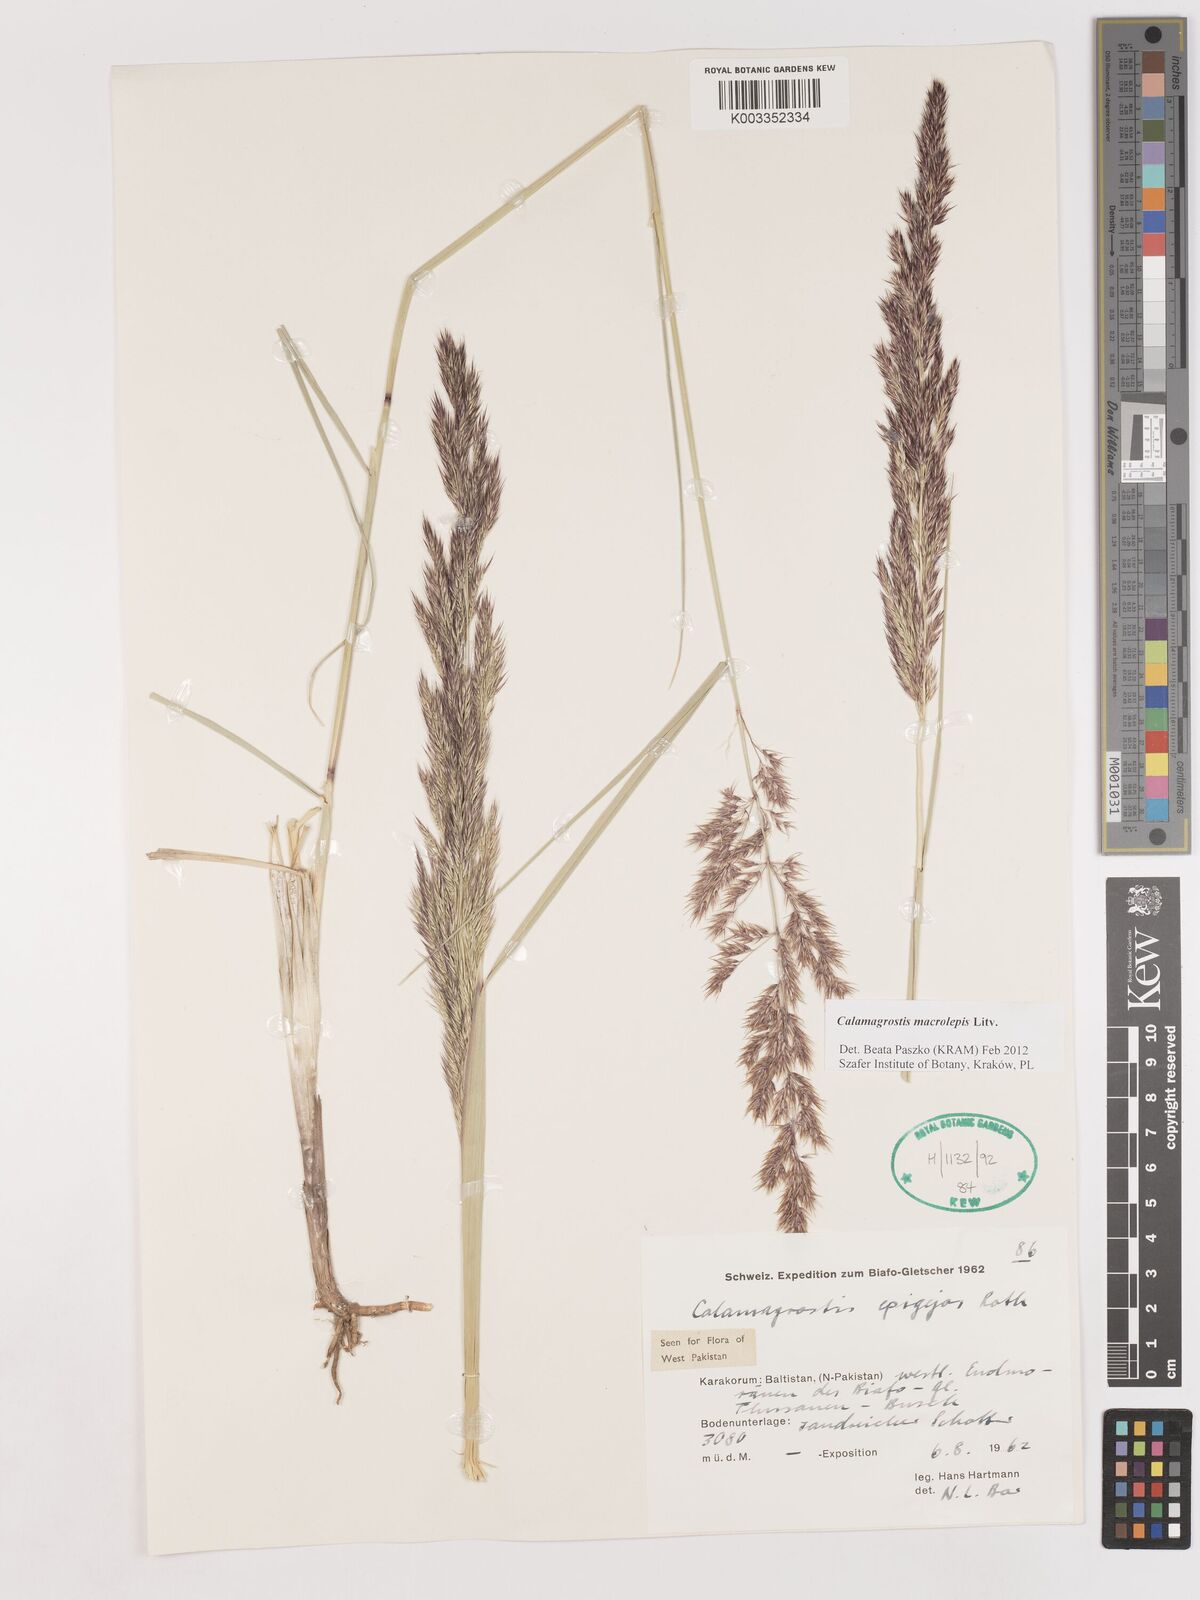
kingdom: Plantae
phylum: Tracheophyta
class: Liliopsida
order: Poales
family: Poaceae
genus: Calamagrostis
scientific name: Calamagrostis epigejos
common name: Wood small-reed
